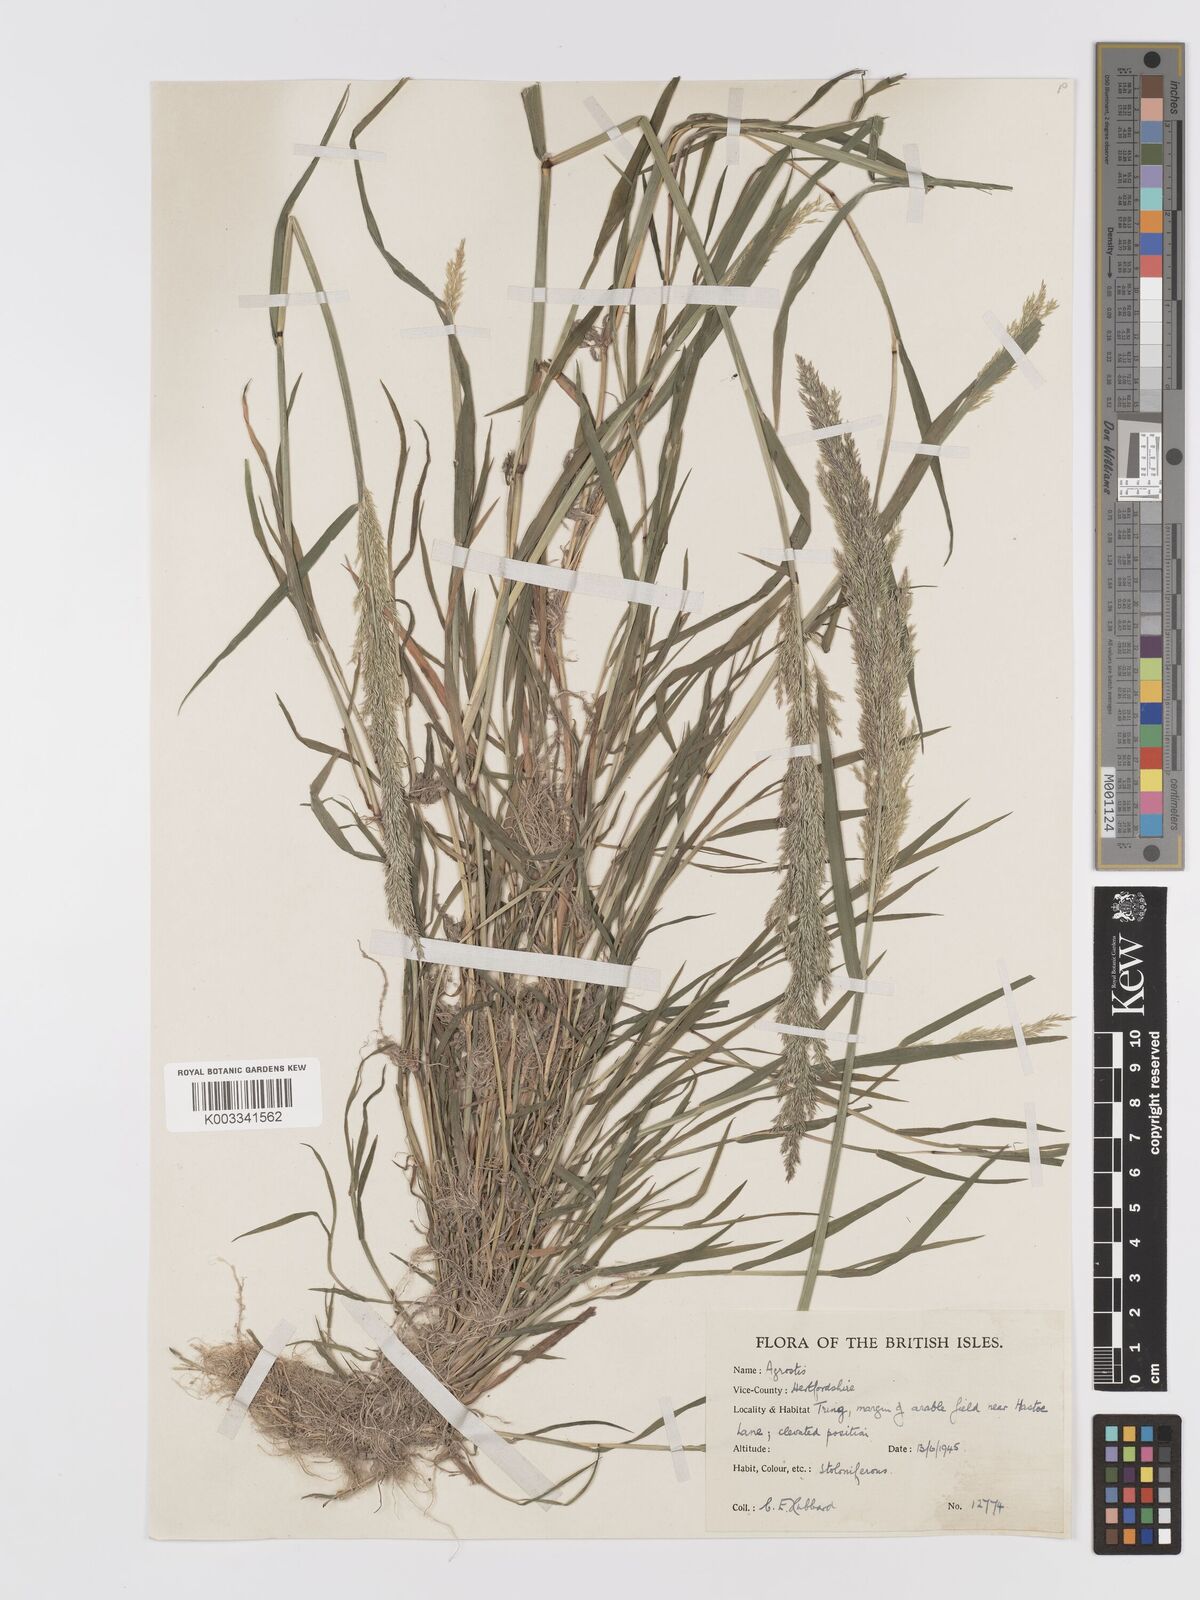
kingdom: Plantae
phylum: Tracheophyta
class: Liliopsida
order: Poales
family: Poaceae
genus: Agrostis
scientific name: Agrostis stolonifera
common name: Creeping bentgrass
